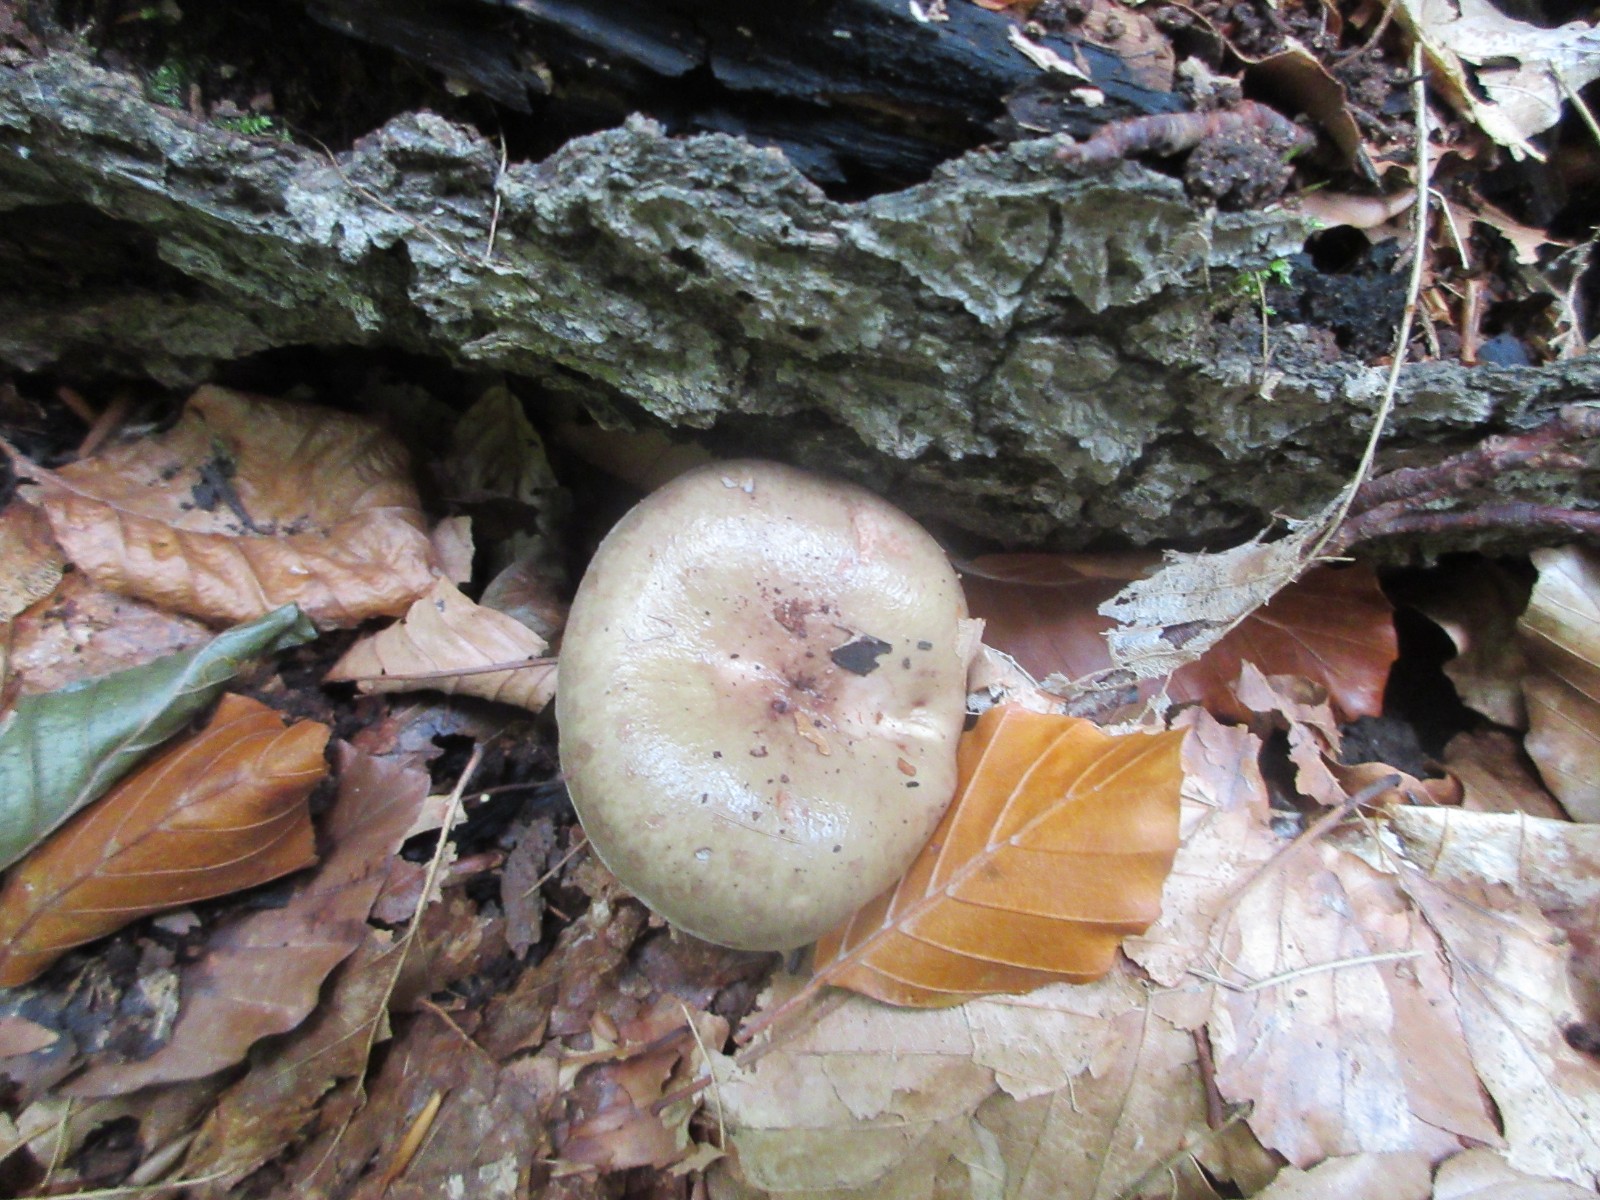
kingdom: Fungi
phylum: Basidiomycota
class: Agaricomycetes
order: Russulales
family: Russulaceae
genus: Lactarius
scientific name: Lactarius blennius
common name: dråbeplettet mælkehat
